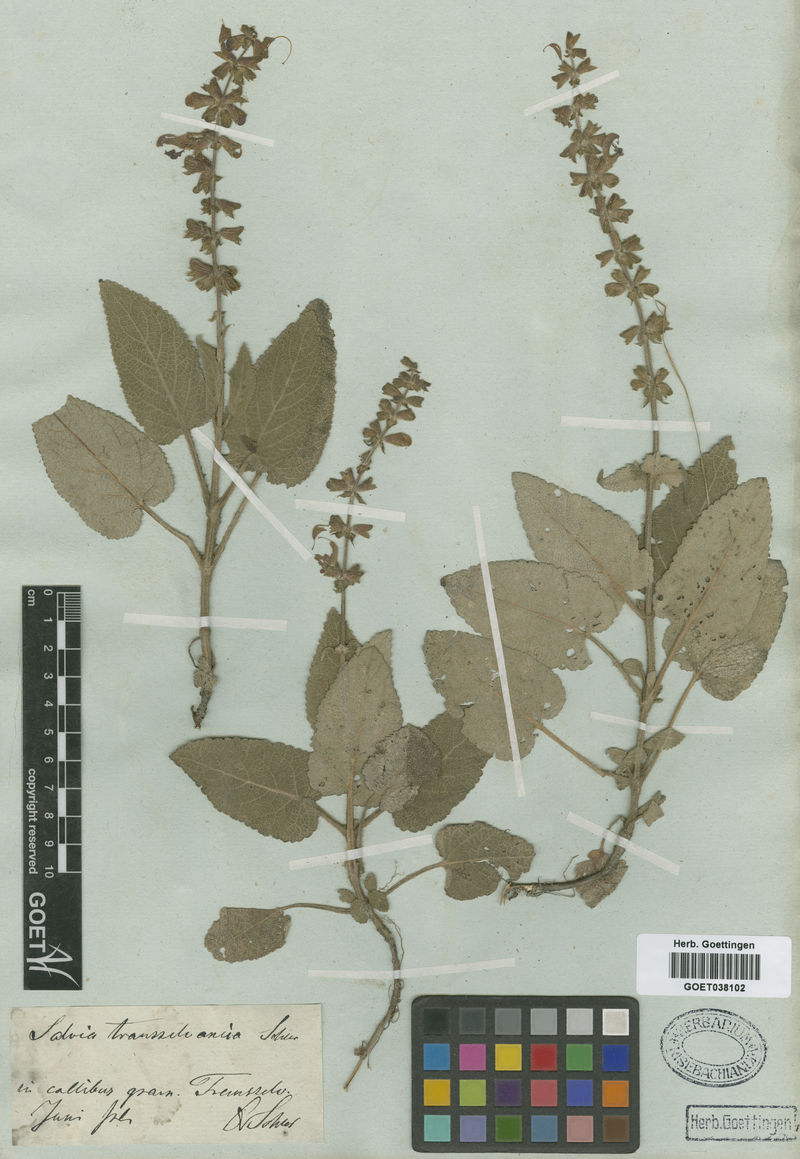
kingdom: Plantae
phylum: Tracheophyta
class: Magnoliopsida
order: Lamiales
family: Lamiaceae
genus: Salvia
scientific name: Salvia transsylvanica
